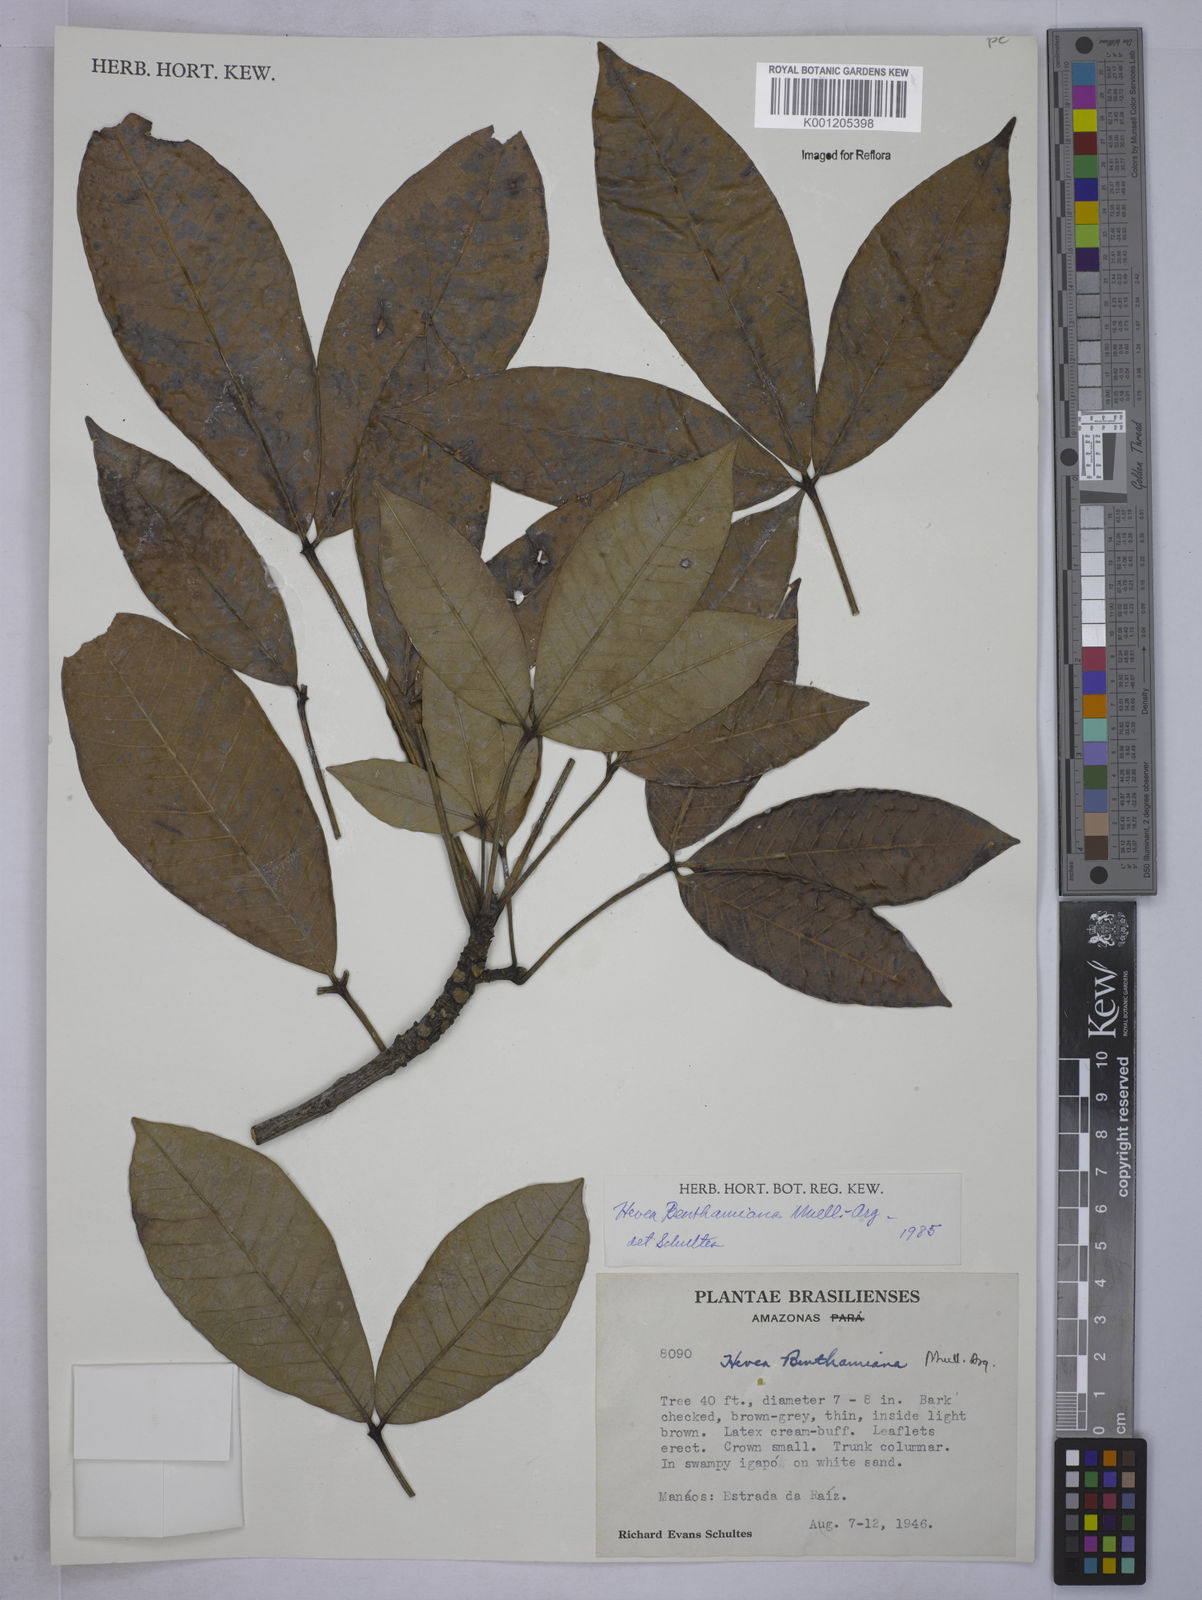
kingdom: Plantae
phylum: Tracheophyta
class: Magnoliopsida
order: Malpighiales
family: Euphorbiaceae
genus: Hevea
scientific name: Hevea
